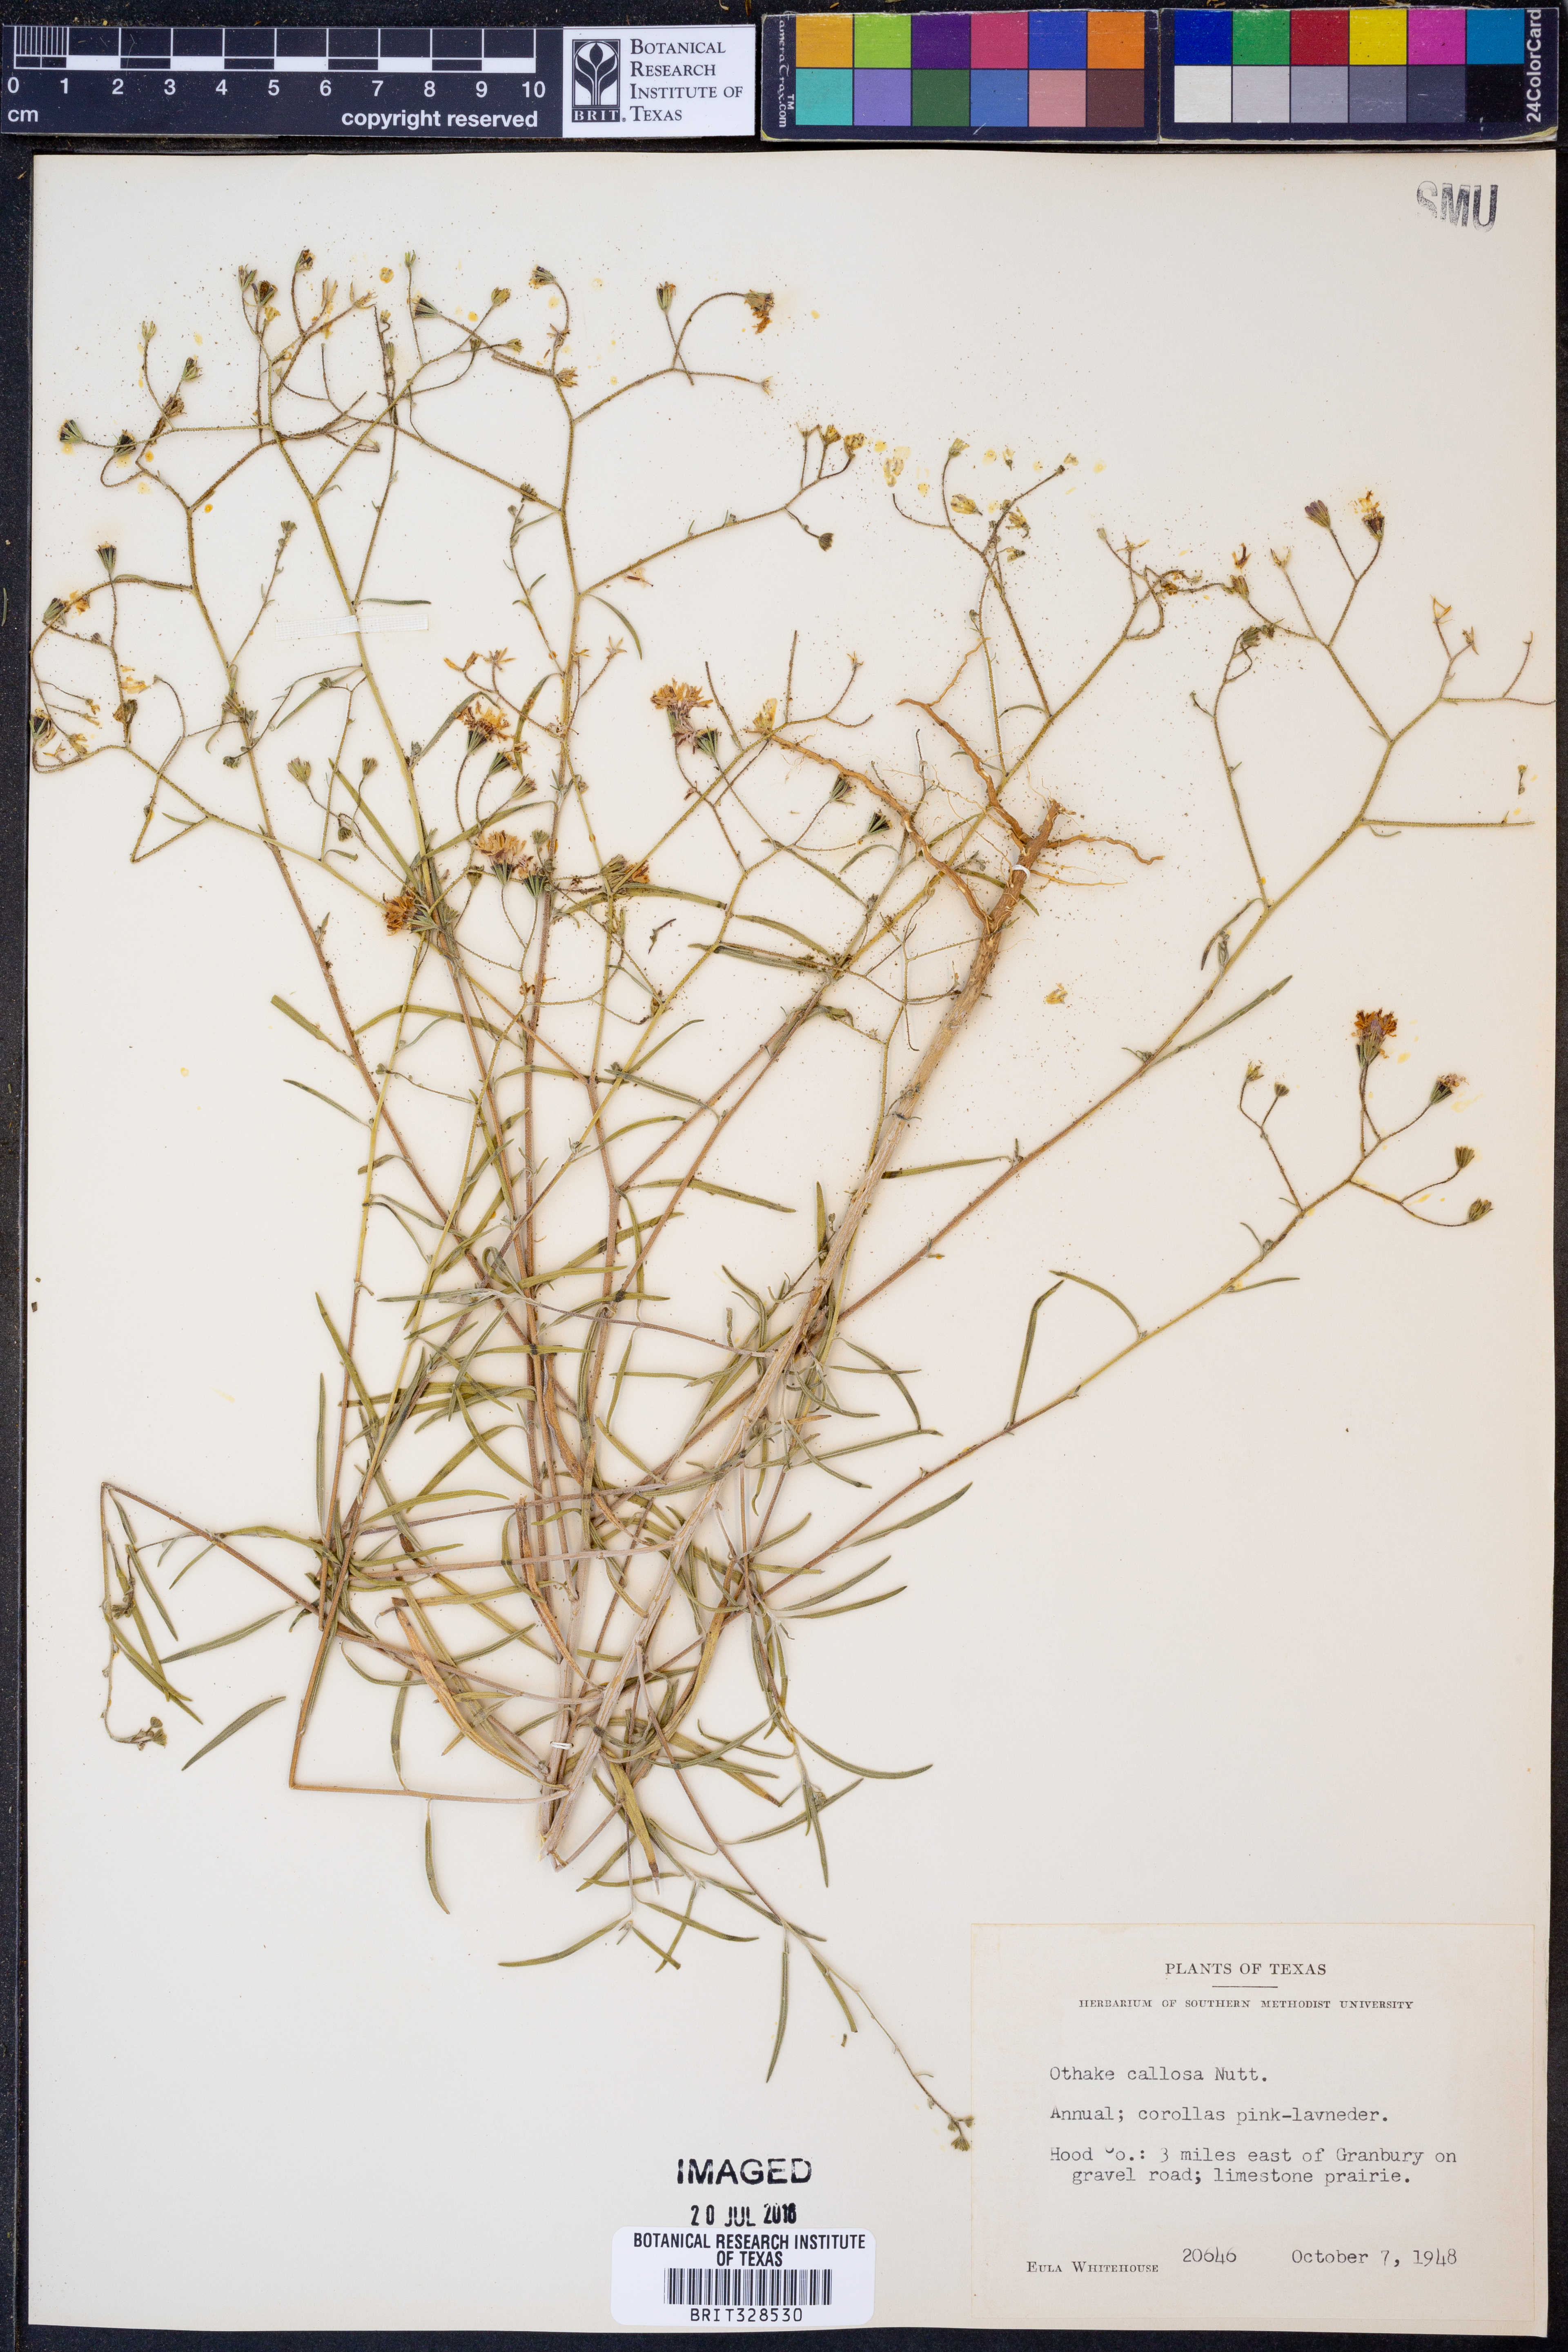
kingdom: Plantae
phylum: Tracheophyta
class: Magnoliopsida
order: Asterales
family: Asteraceae
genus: Palafoxia
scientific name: Palafoxia callosa
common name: Small palafox
